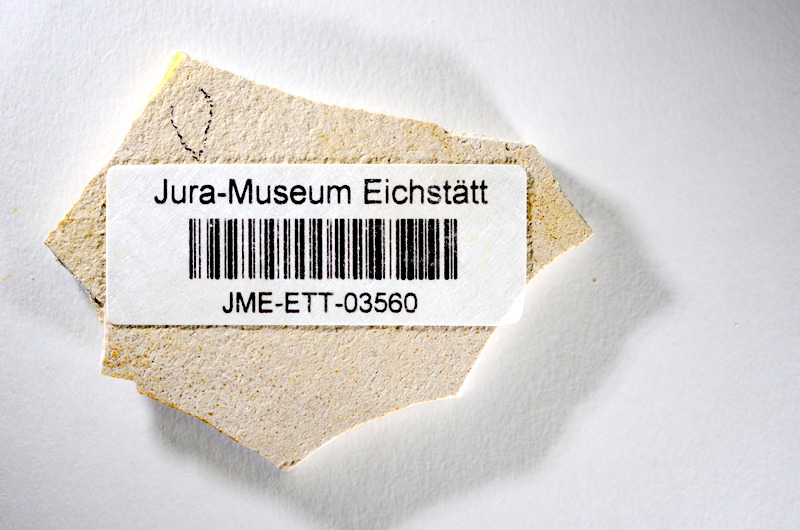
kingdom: Animalia
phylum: Chordata
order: Salmoniformes
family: Orthogonikleithridae
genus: Orthogonikleithrus
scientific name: Orthogonikleithrus hoelli
